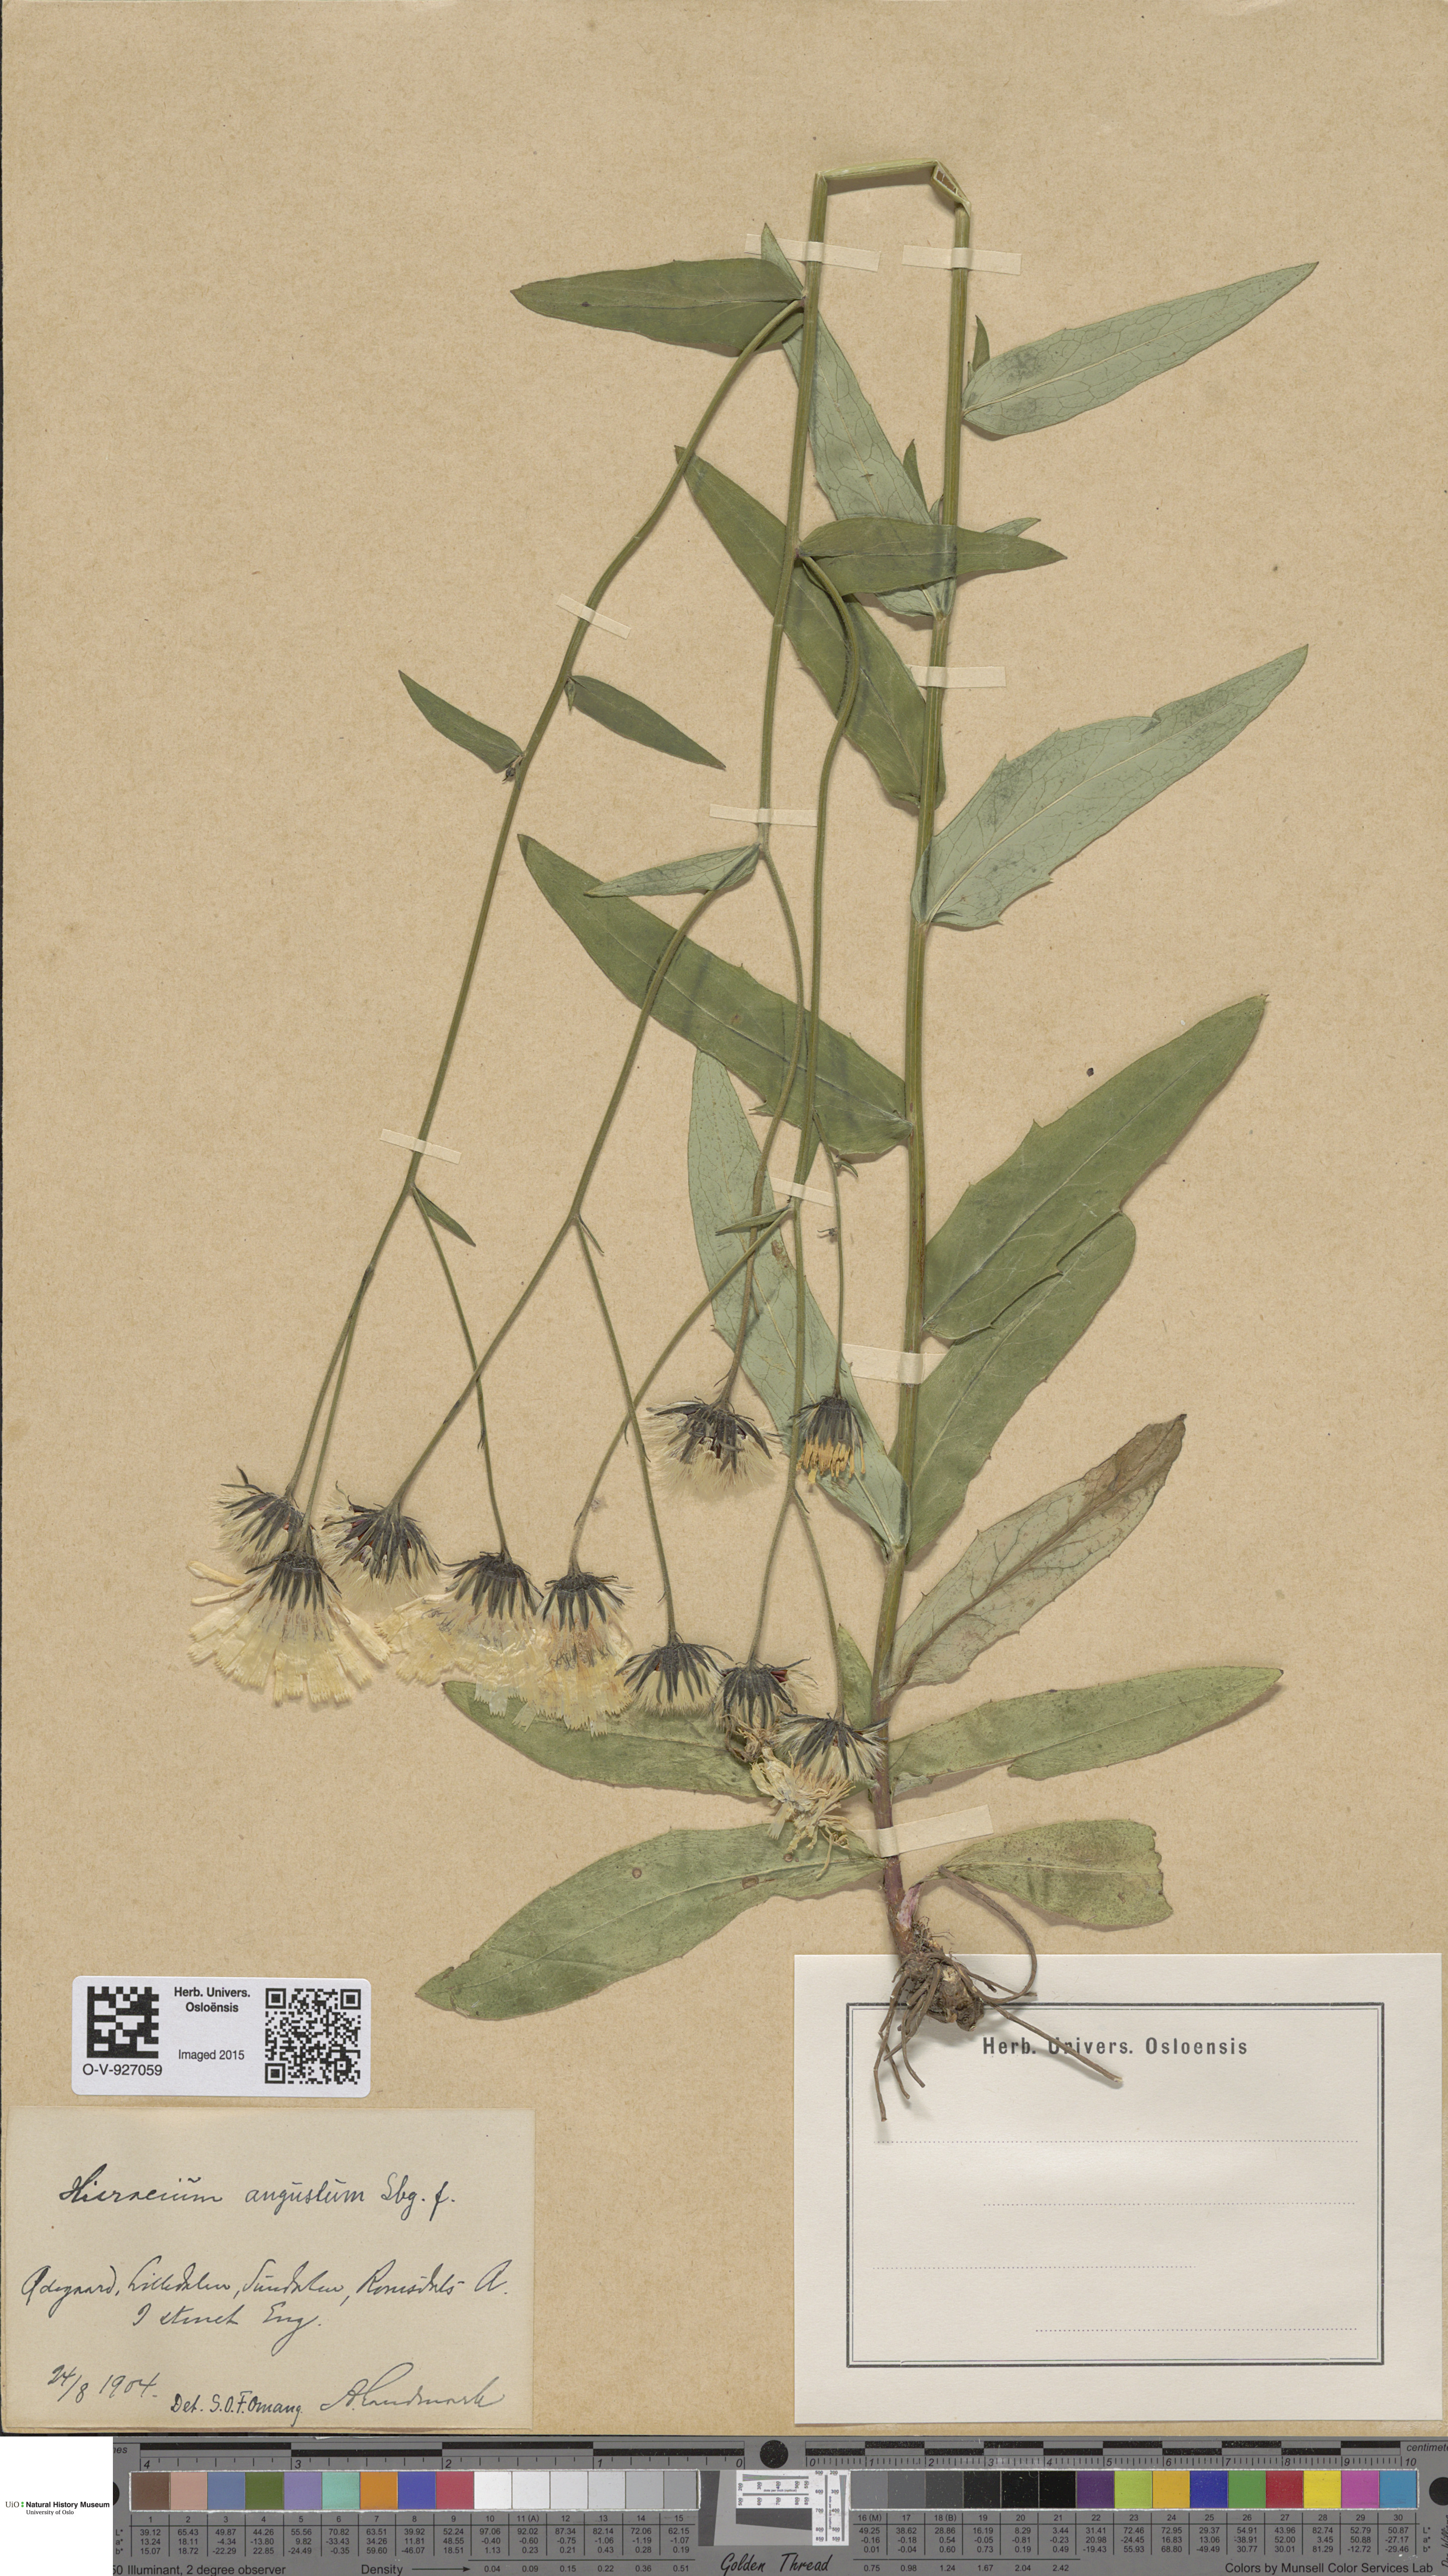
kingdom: Plantae
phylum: Tracheophyta
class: Magnoliopsida
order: Asterales
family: Asteraceae
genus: Hieracium
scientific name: Hieracium angustum
